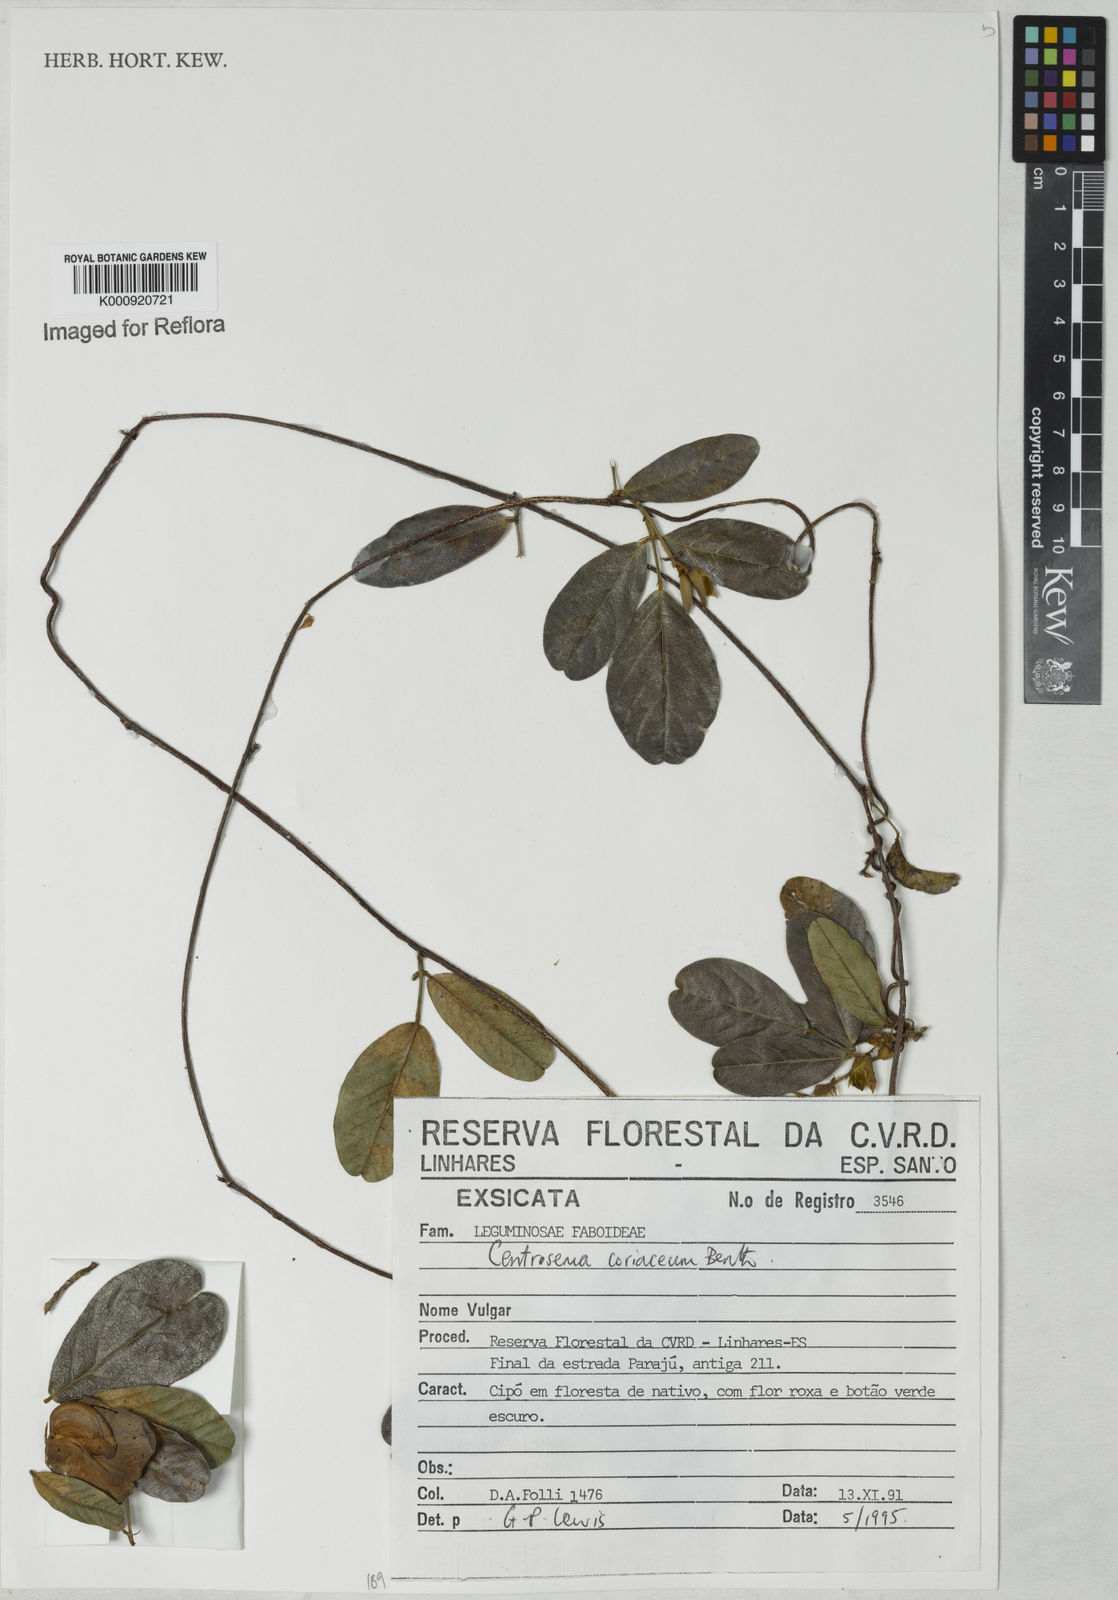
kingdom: Plantae
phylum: Tracheophyta
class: Magnoliopsida
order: Fabales
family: Fabaceae
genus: Centrosema
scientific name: Centrosema coriaceum
